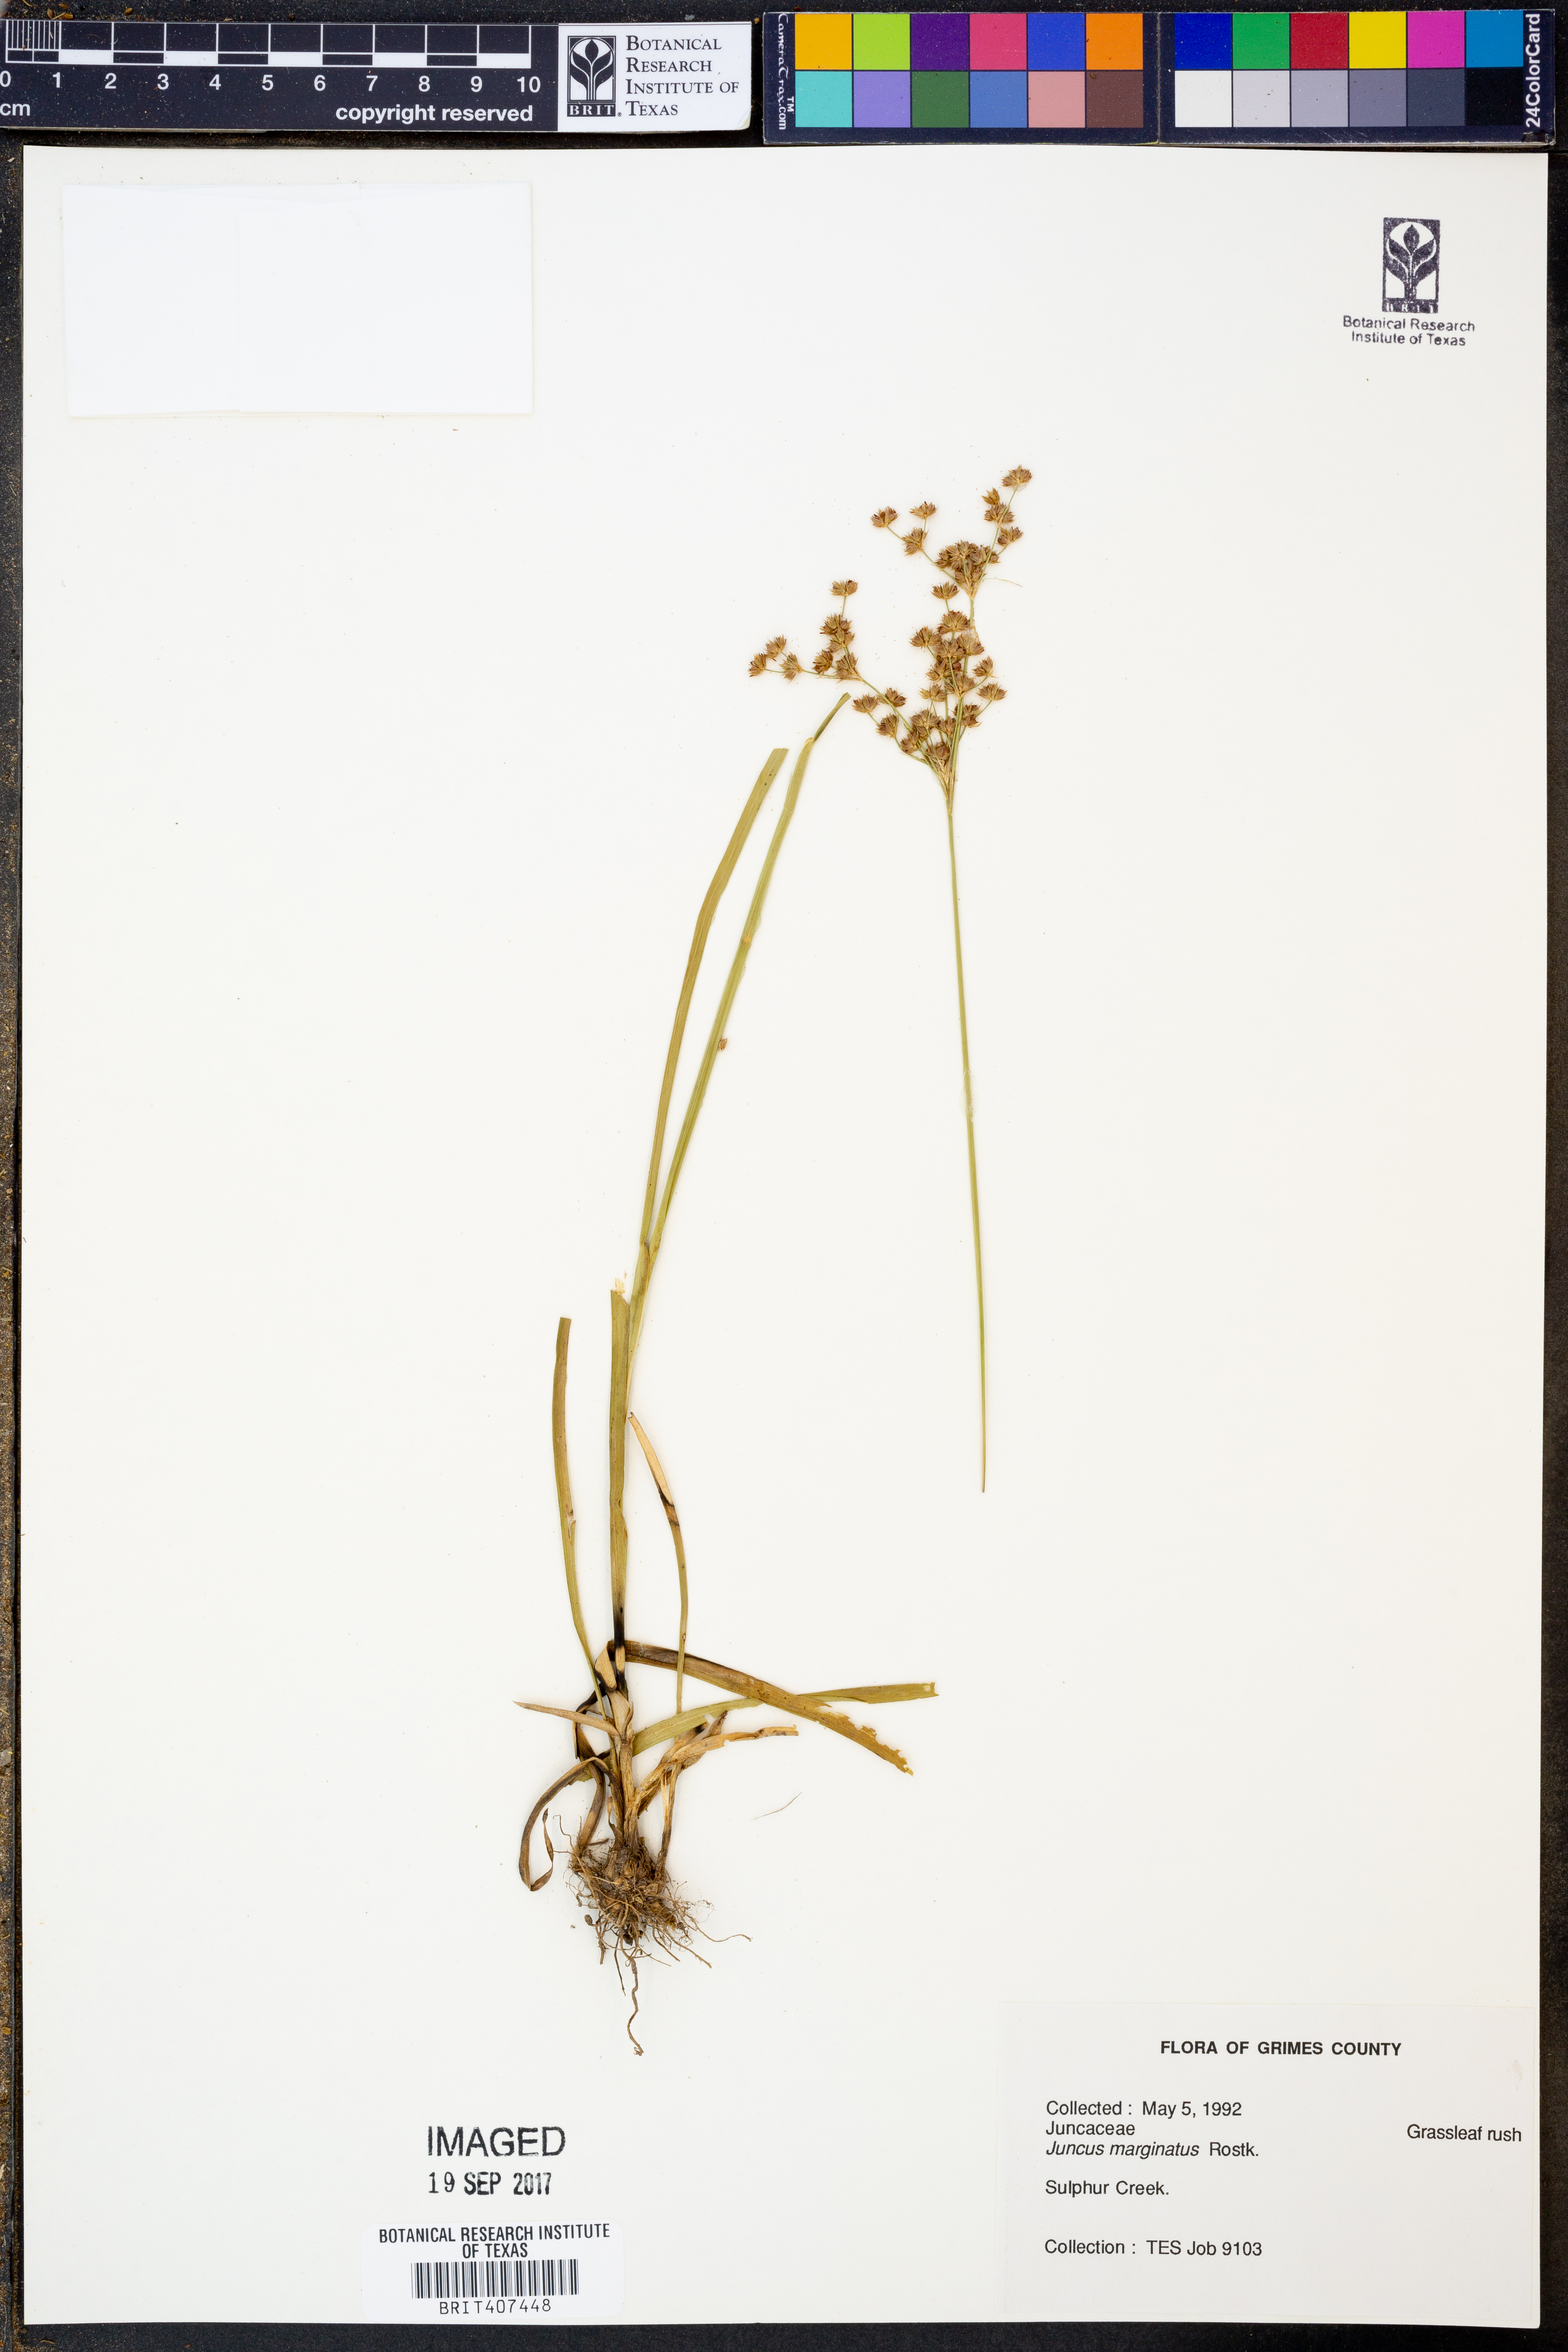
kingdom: Plantae
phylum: Tracheophyta
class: Liliopsida
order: Poales
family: Juncaceae
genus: Juncus
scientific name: Juncus marginatus
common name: Grass-leaf rush
